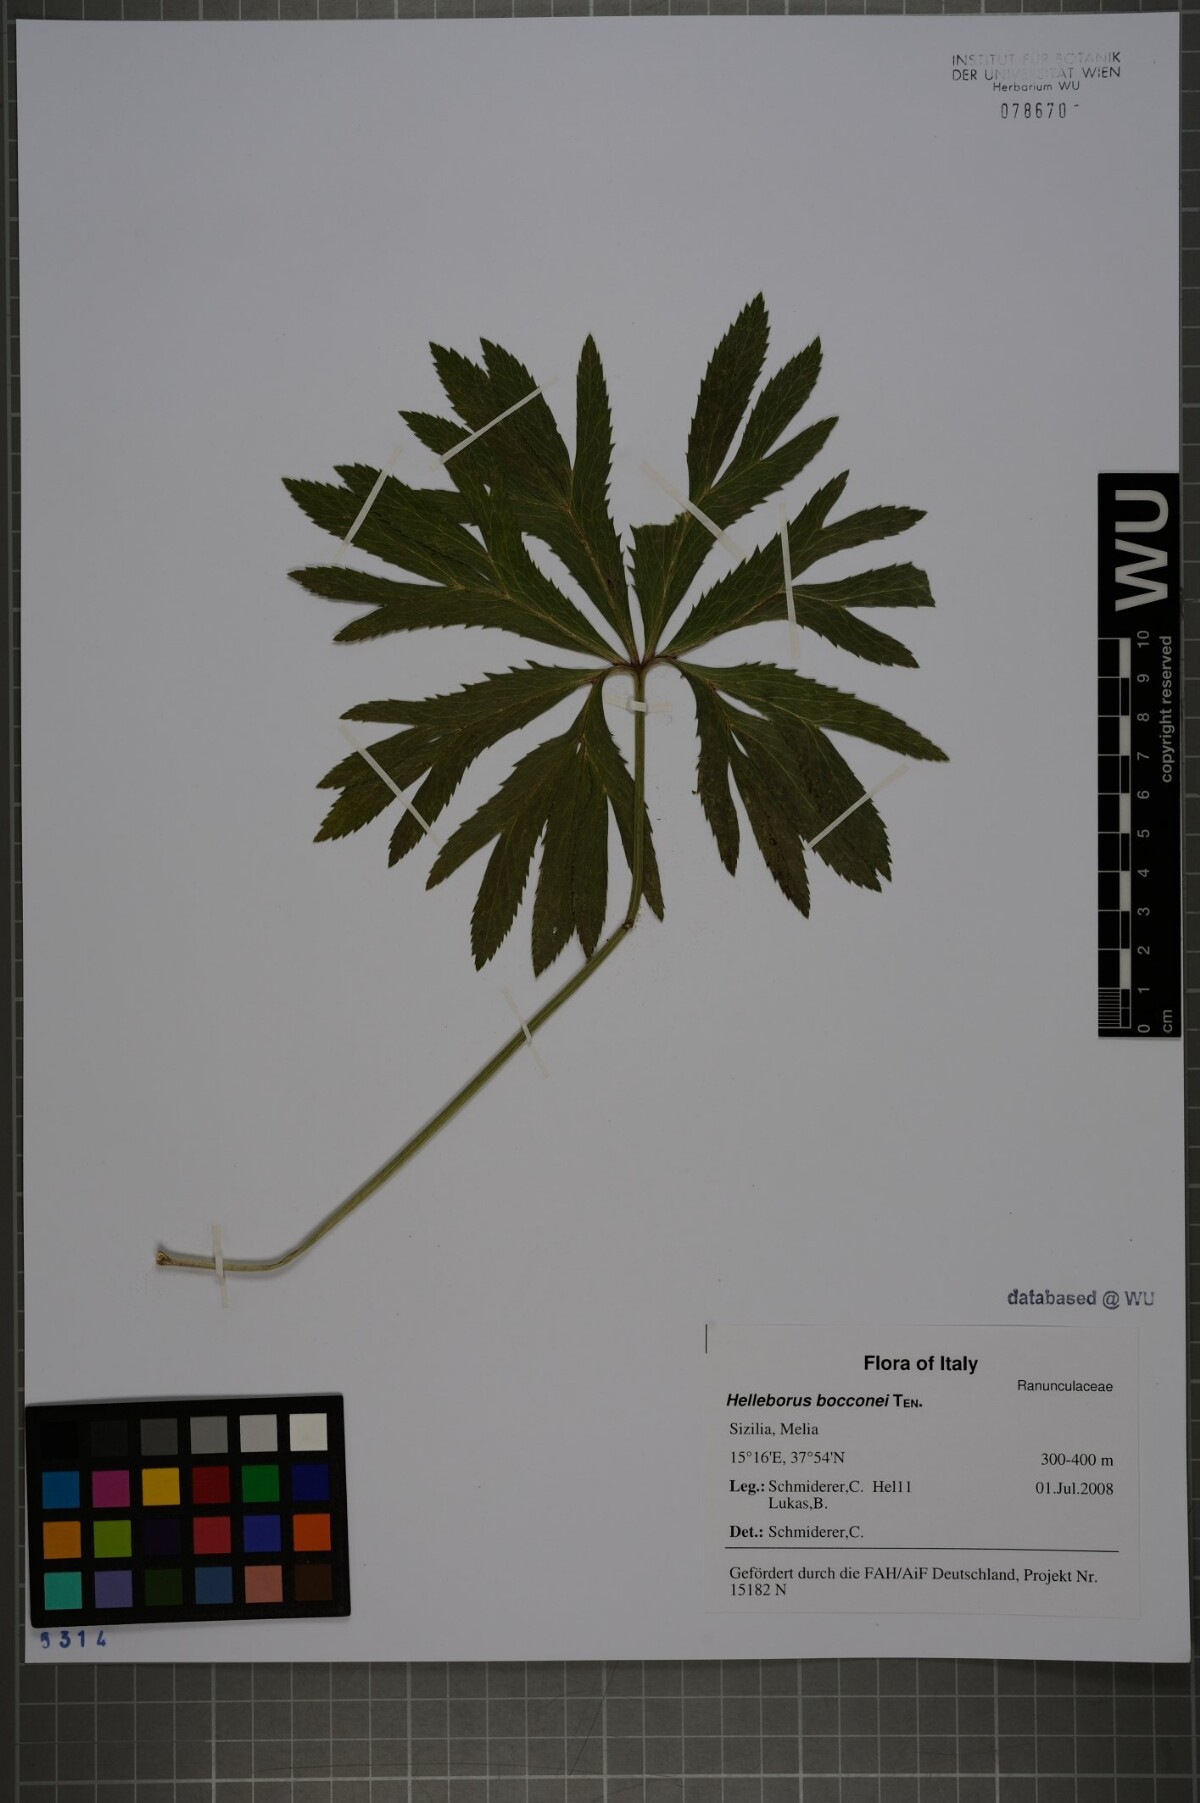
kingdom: Plantae
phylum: Tracheophyta
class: Magnoliopsida
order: Ranunculales
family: Ranunculaceae
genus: Helleborus
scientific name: Helleborus bocconei
